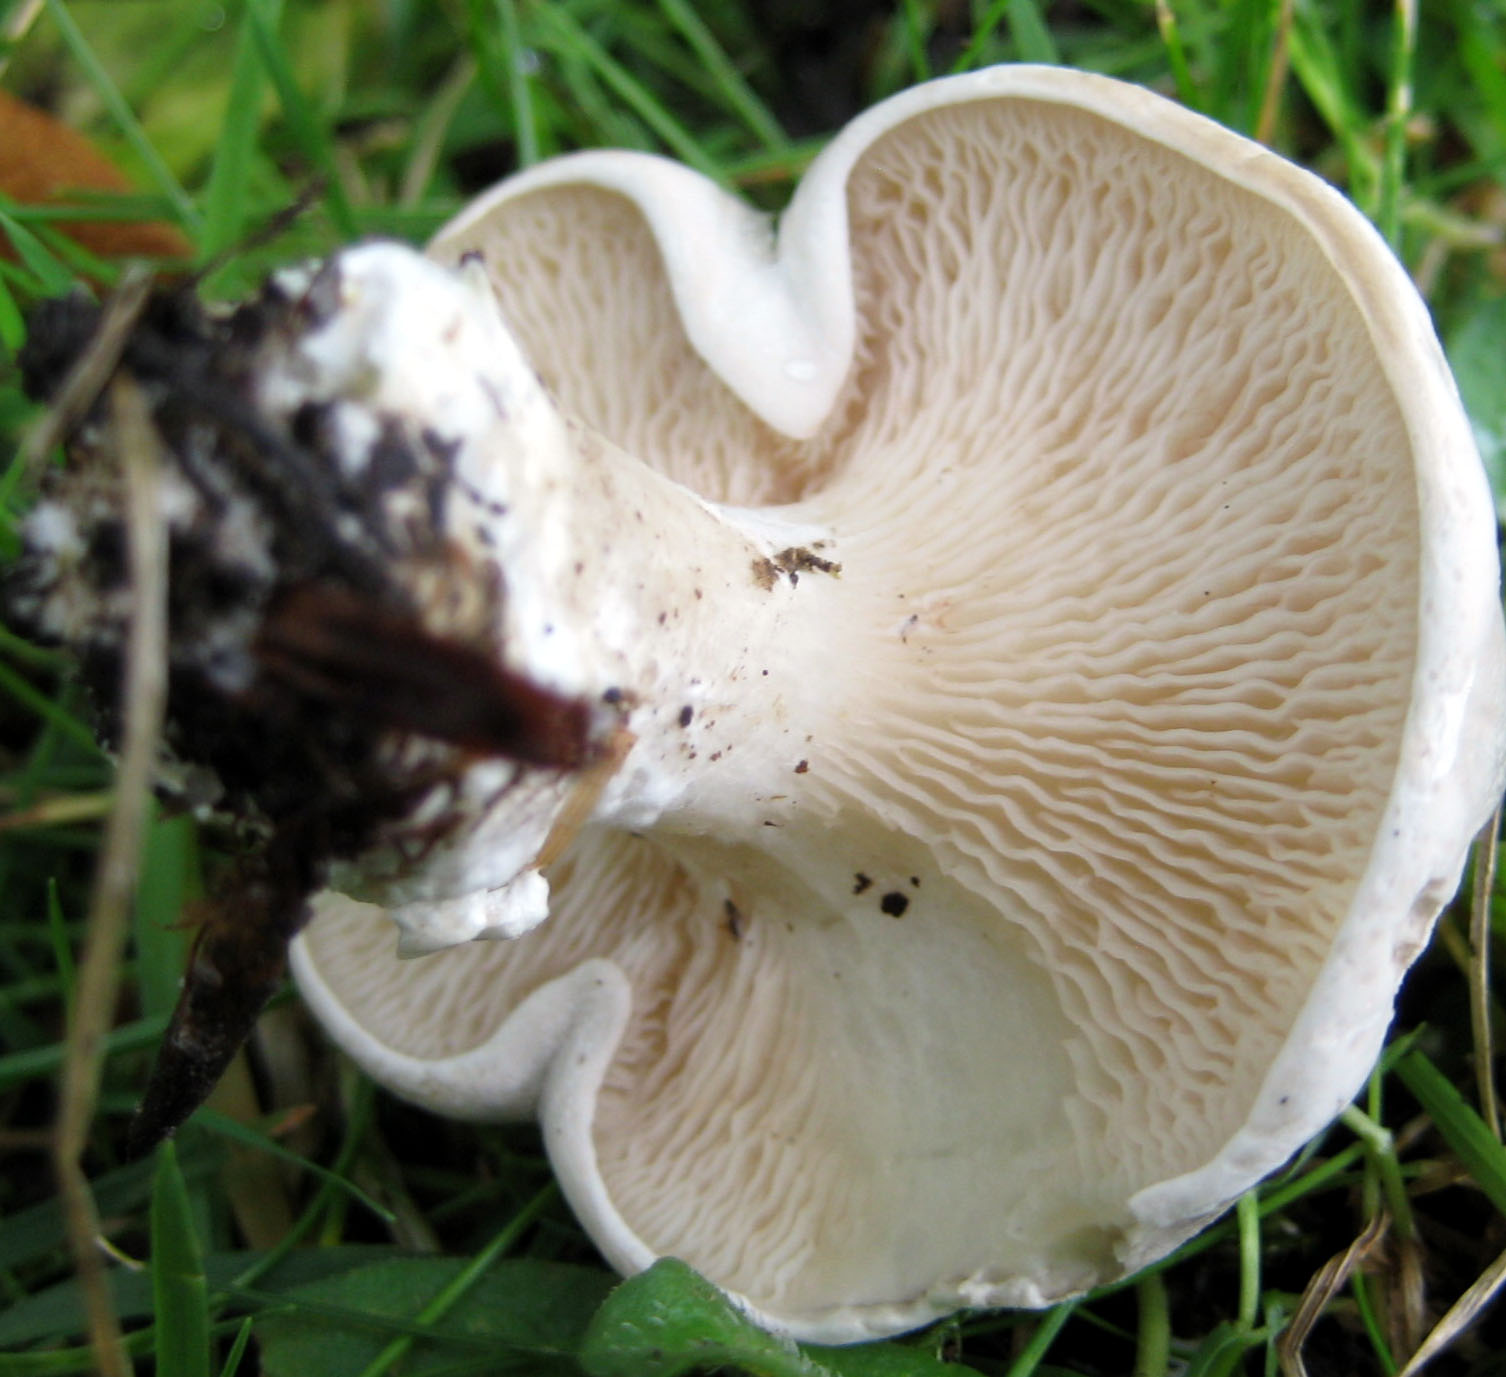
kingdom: Fungi
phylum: Basidiomycota
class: Agaricomycetes
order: Agaricales
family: Entolomataceae
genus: Clitopilus
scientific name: Clitopilus prunulus
